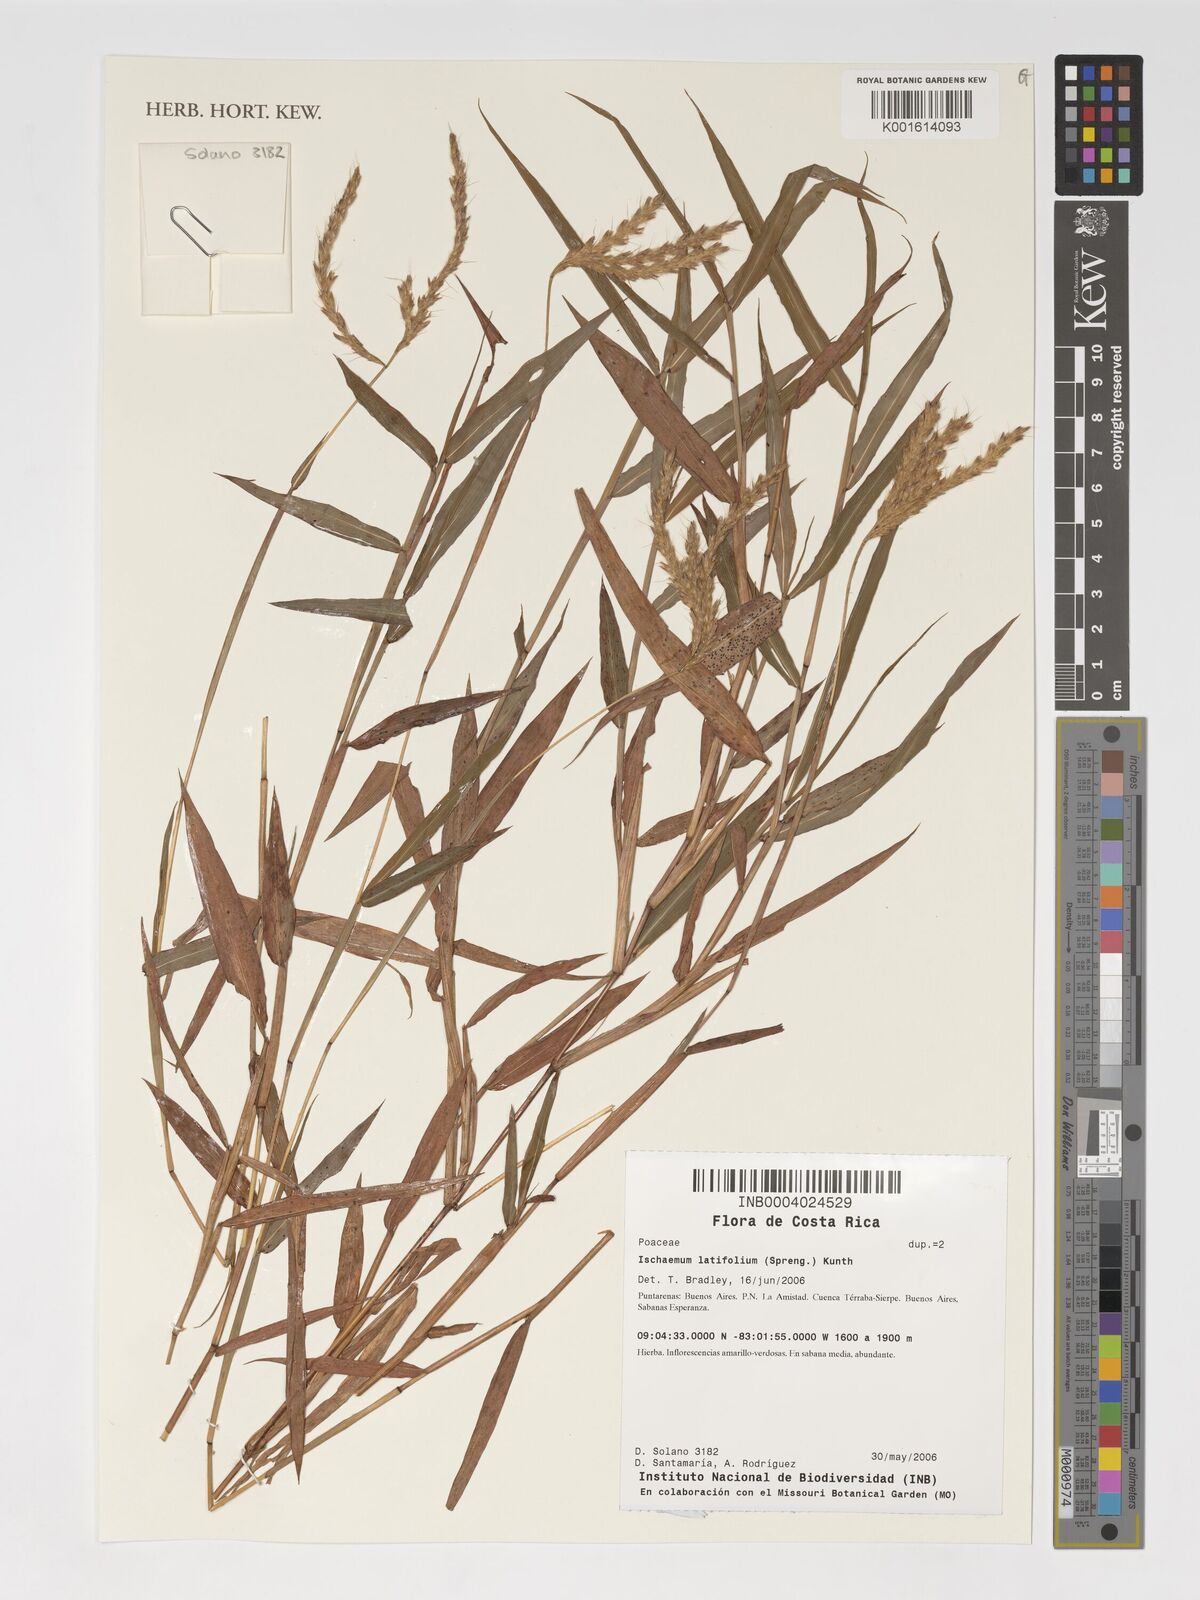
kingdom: Plantae
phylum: Tracheophyta
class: Liliopsida
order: Poales
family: Poaceae
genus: Phacelurus
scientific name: Phacelurus latifolius
